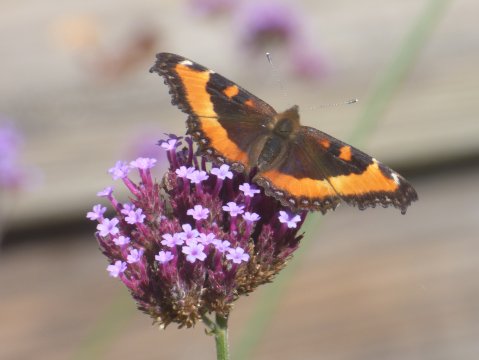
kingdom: Animalia
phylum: Arthropoda
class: Insecta
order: Lepidoptera
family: Nymphalidae
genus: Aglais
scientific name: Aglais milberti
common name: Milbert's Tortoiseshell
